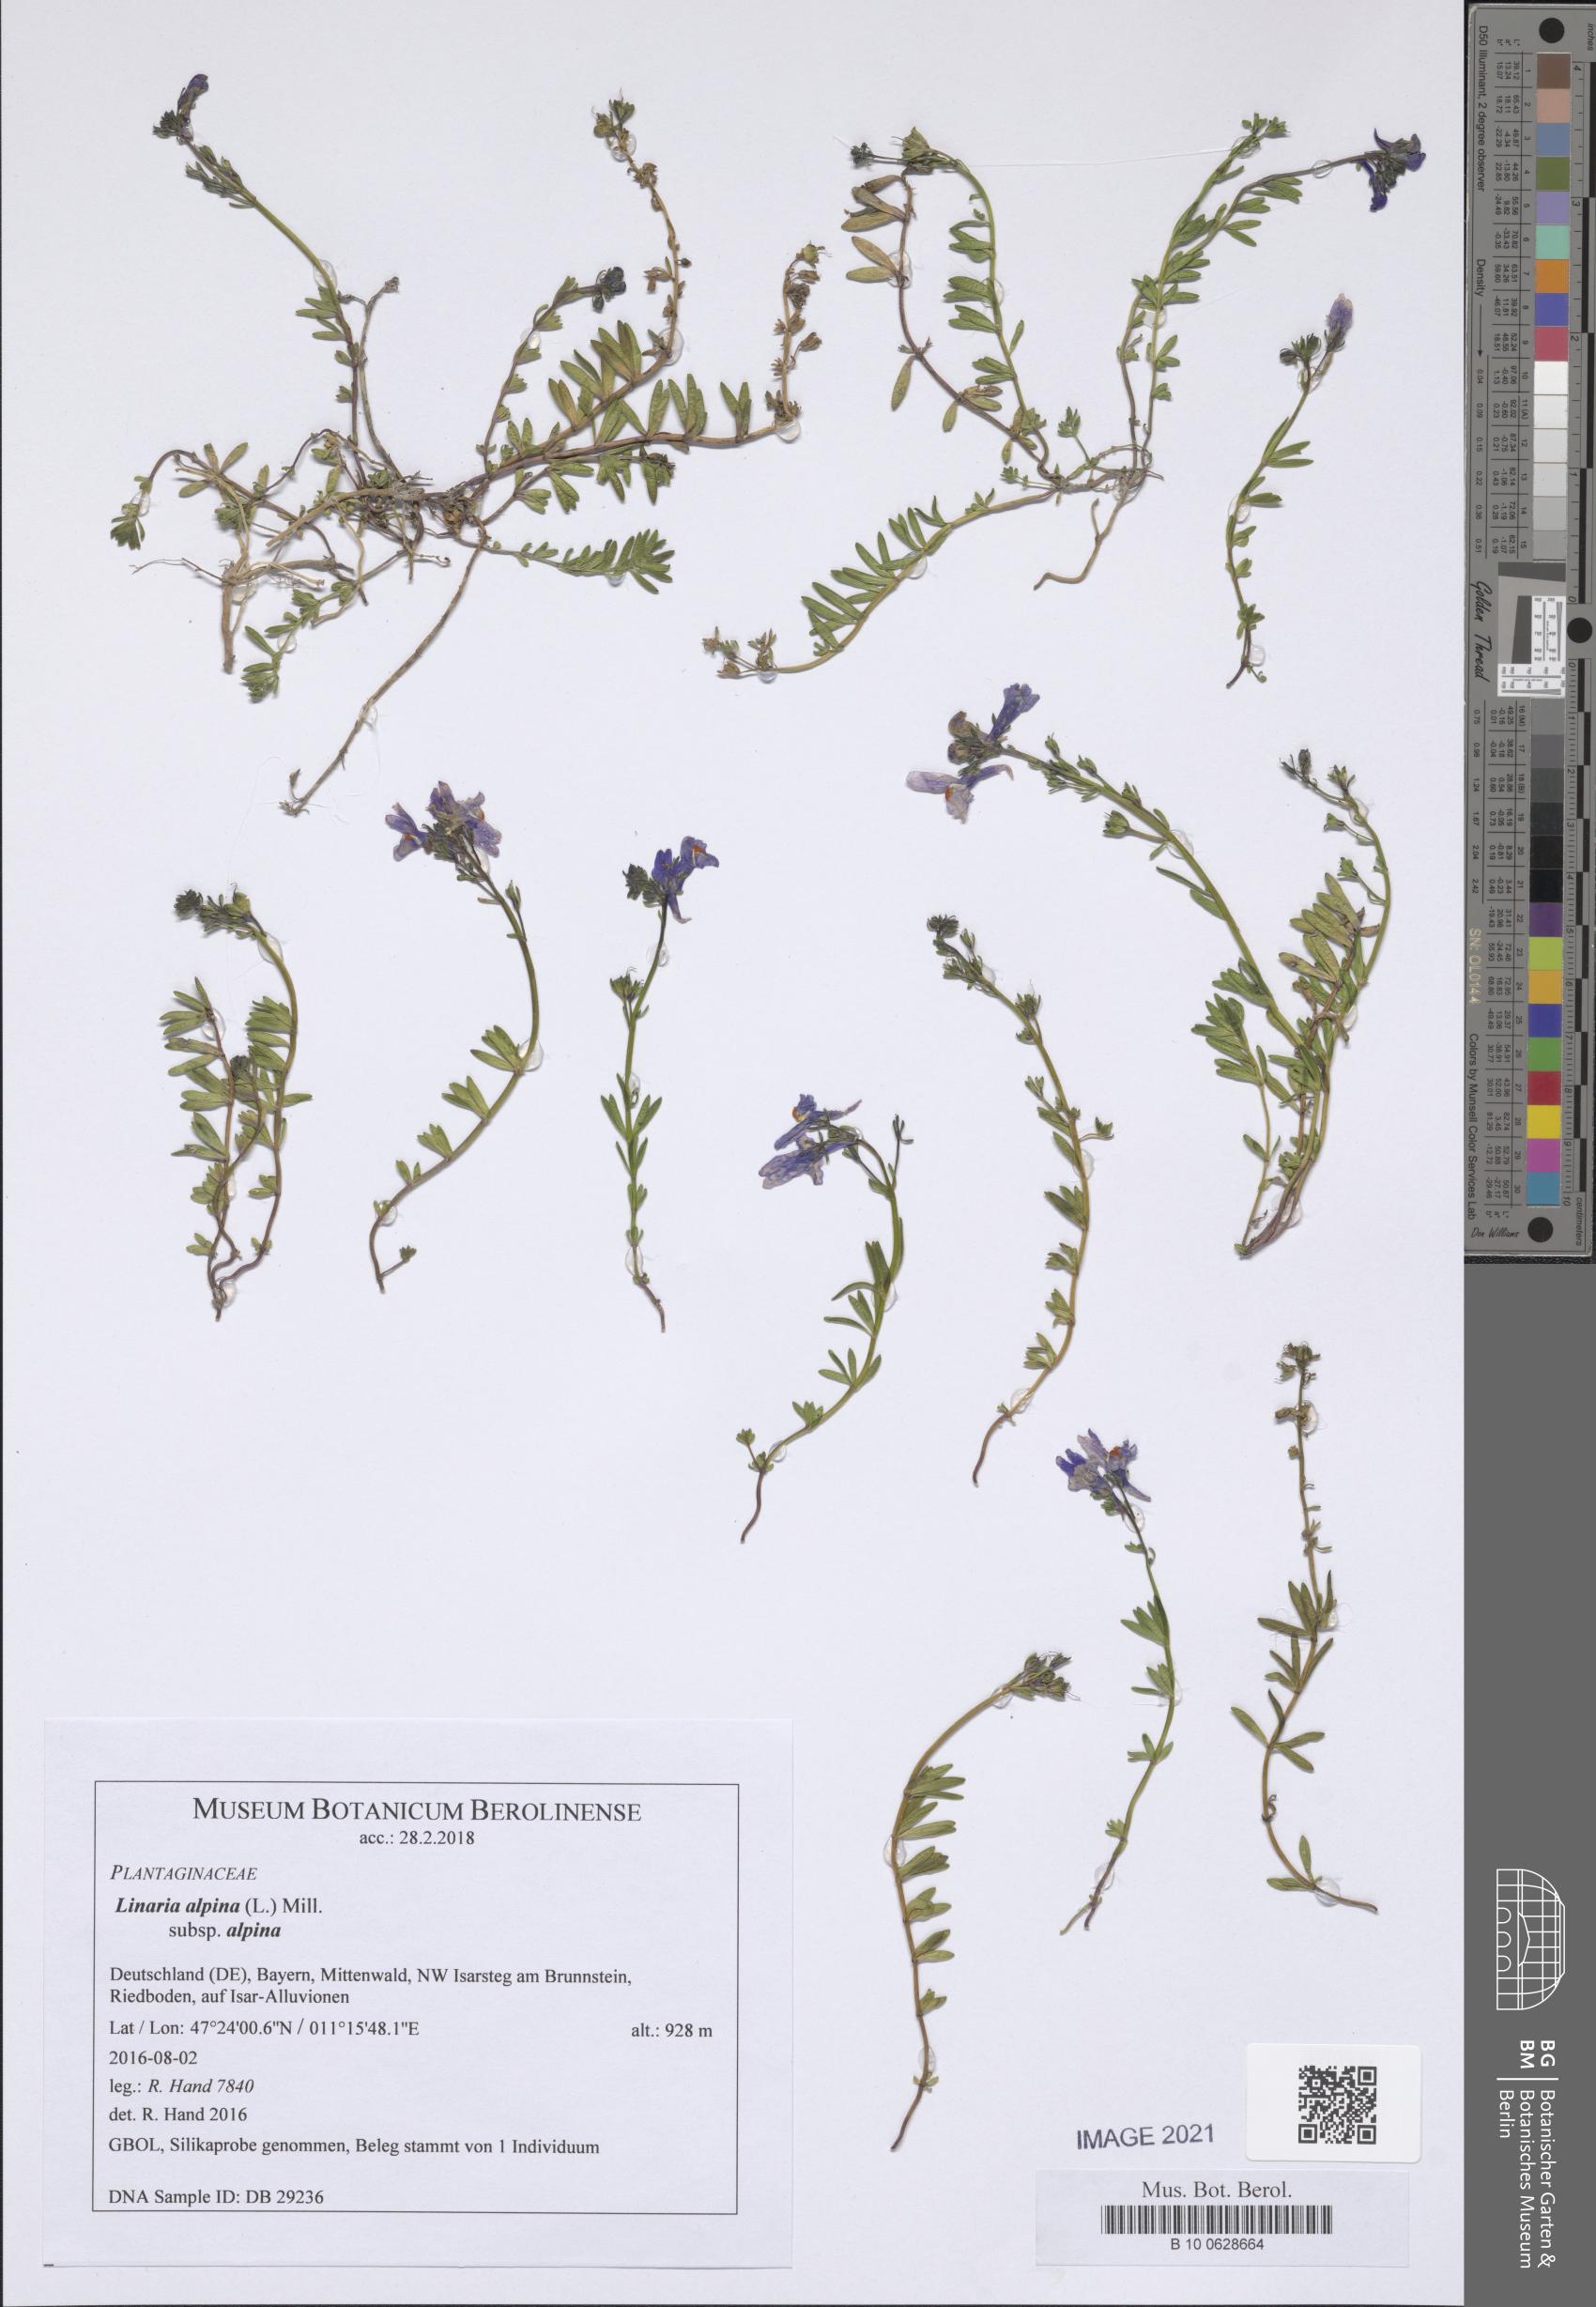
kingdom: Plantae
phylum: Tracheophyta
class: Magnoliopsida
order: Lamiales
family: Plantaginaceae
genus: Linaria
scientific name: Linaria alpina
